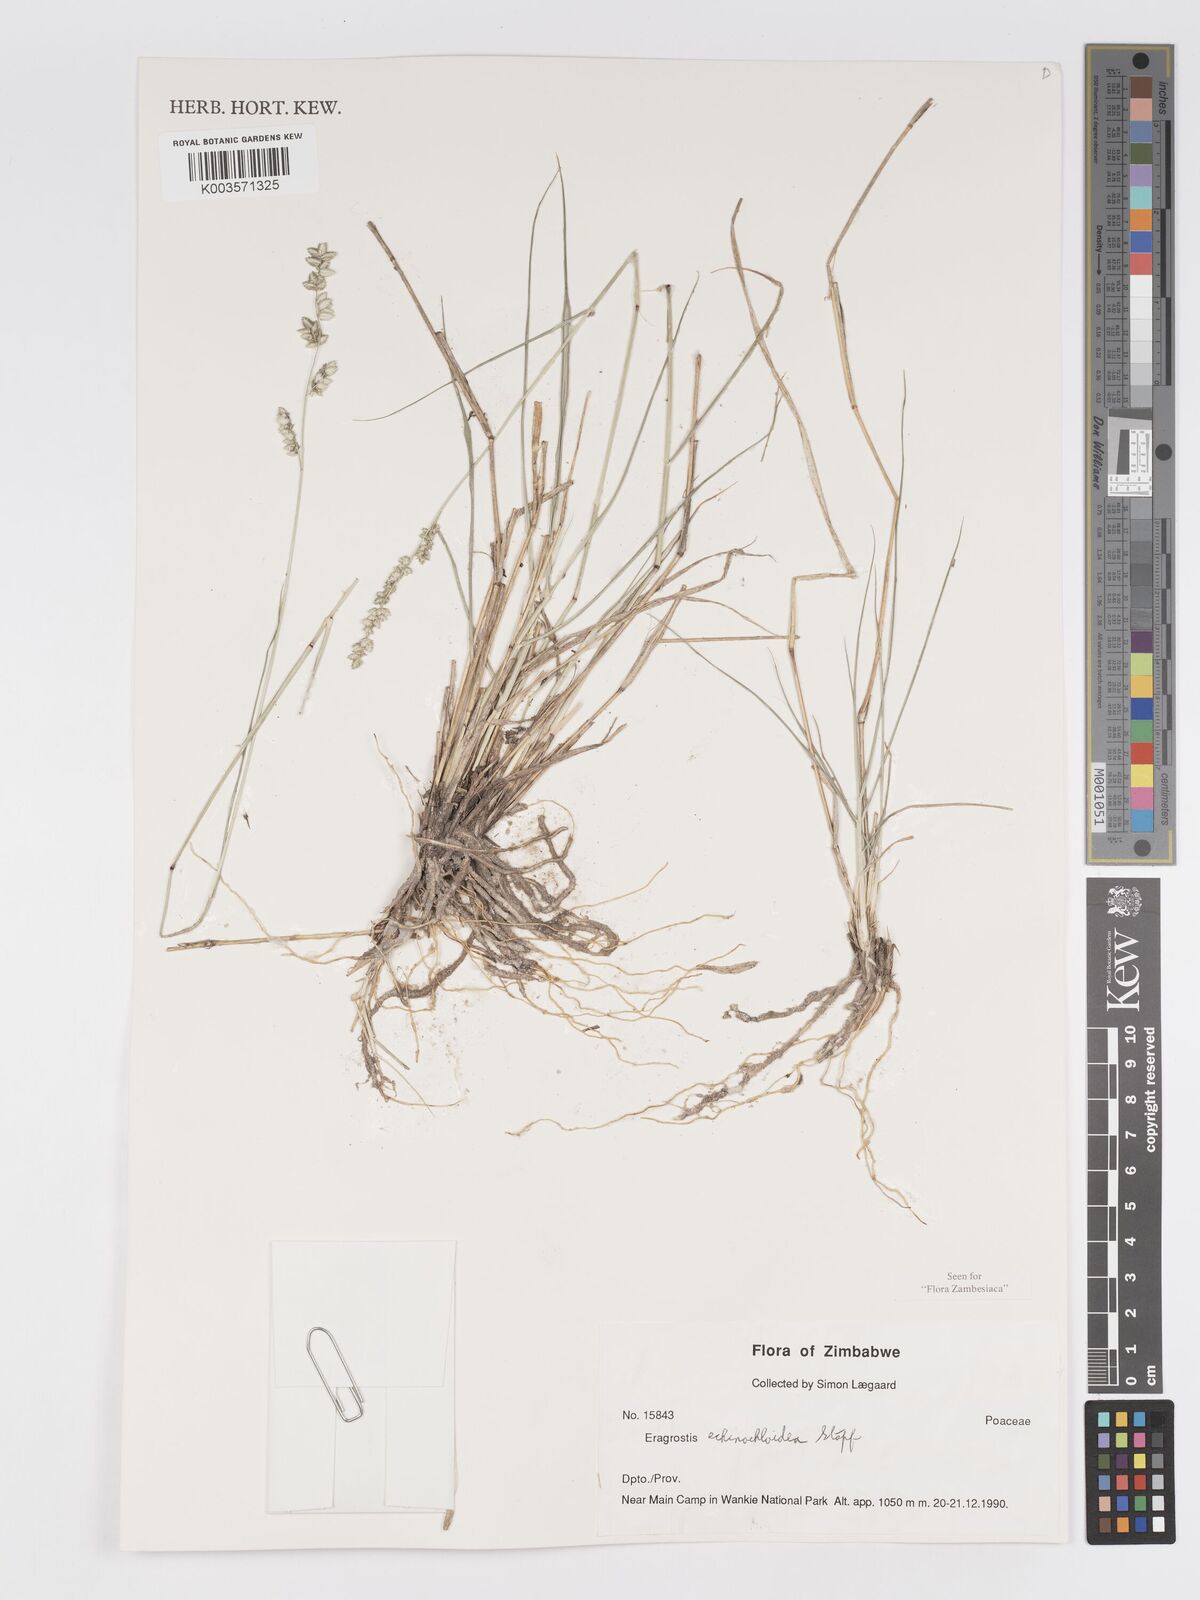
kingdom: Plantae
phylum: Tracheophyta
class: Liliopsida
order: Poales
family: Poaceae
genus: Eragrostis
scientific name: Eragrostis echinochloidea
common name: African lovegrass
